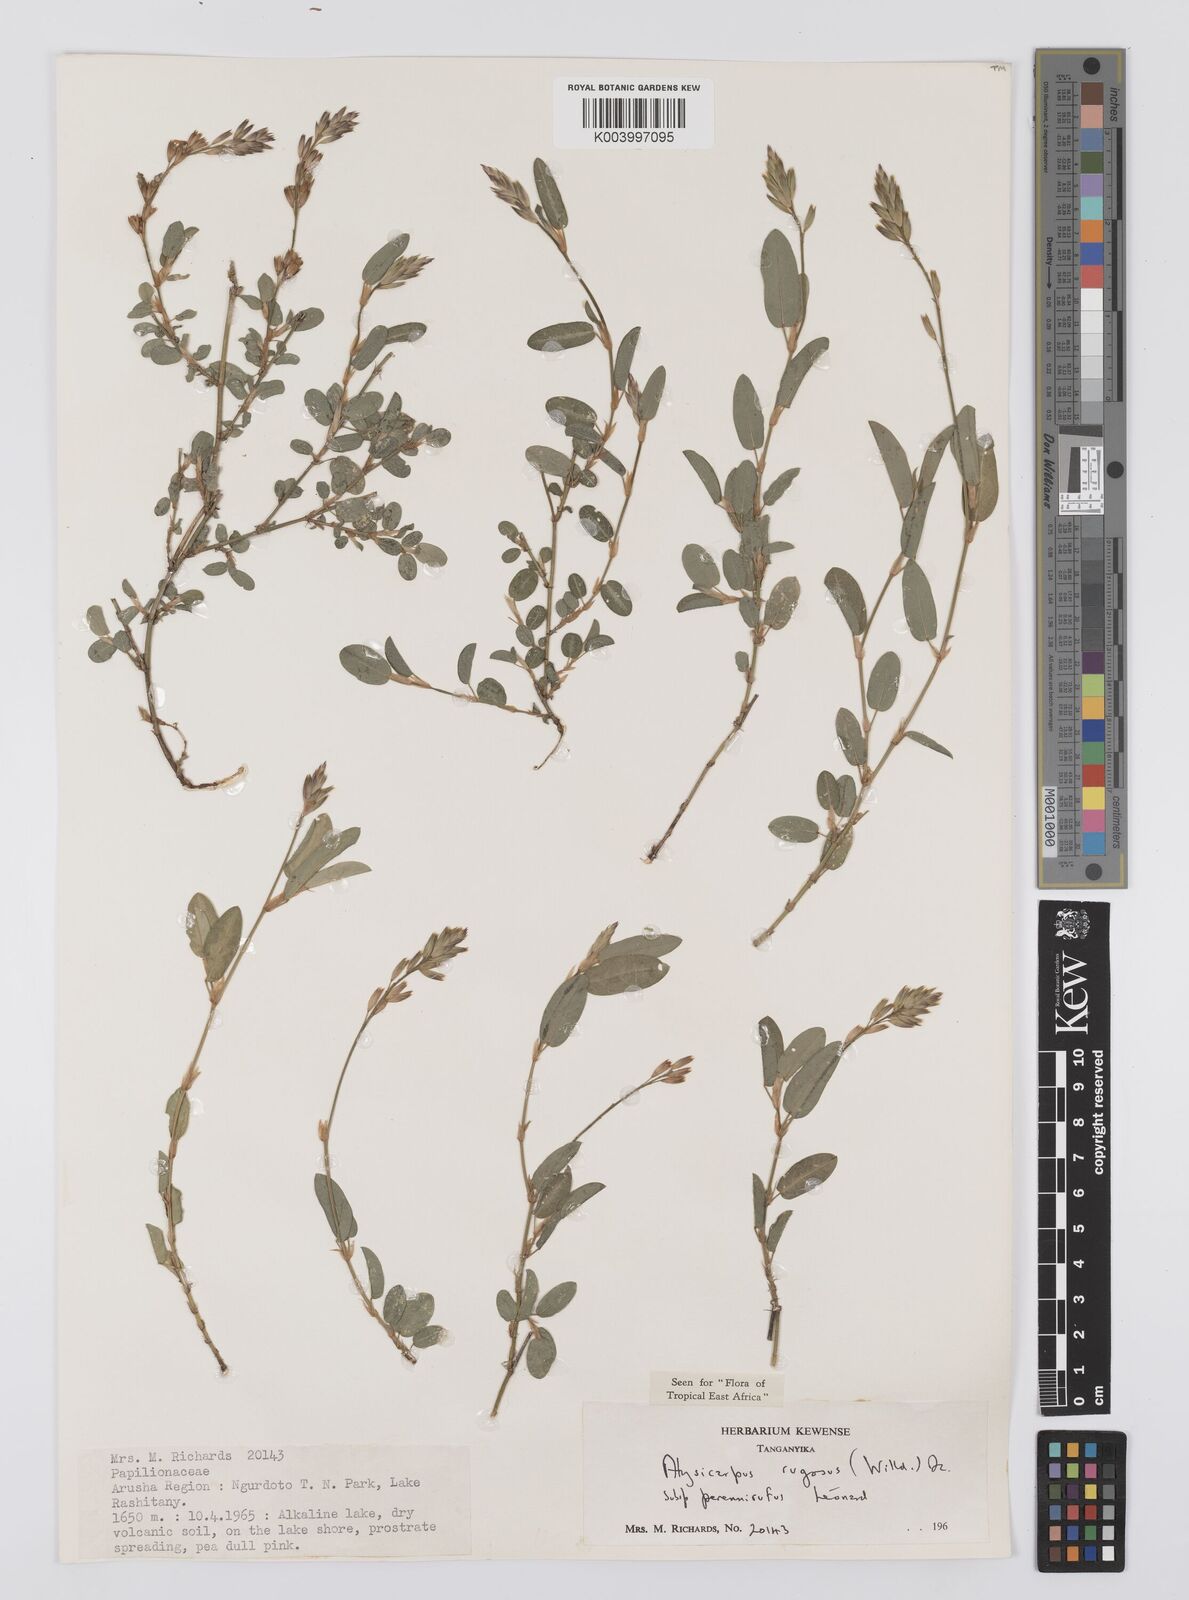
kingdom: Plantae
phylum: Tracheophyta
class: Magnoliopsida
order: Fabales
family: Fabaceae
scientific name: Fabaceae
